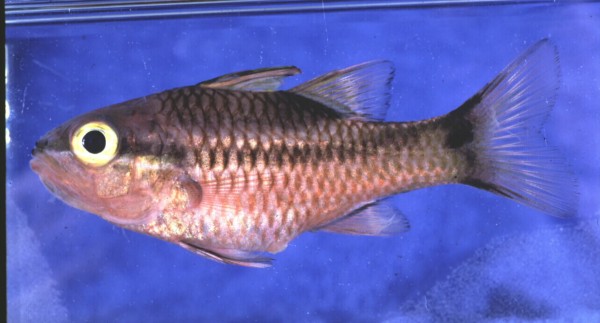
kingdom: Animalia
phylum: Chordata
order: Perciformes
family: Apogonidae
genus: Pristiapogon
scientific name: Pristiapogon kallopterus
